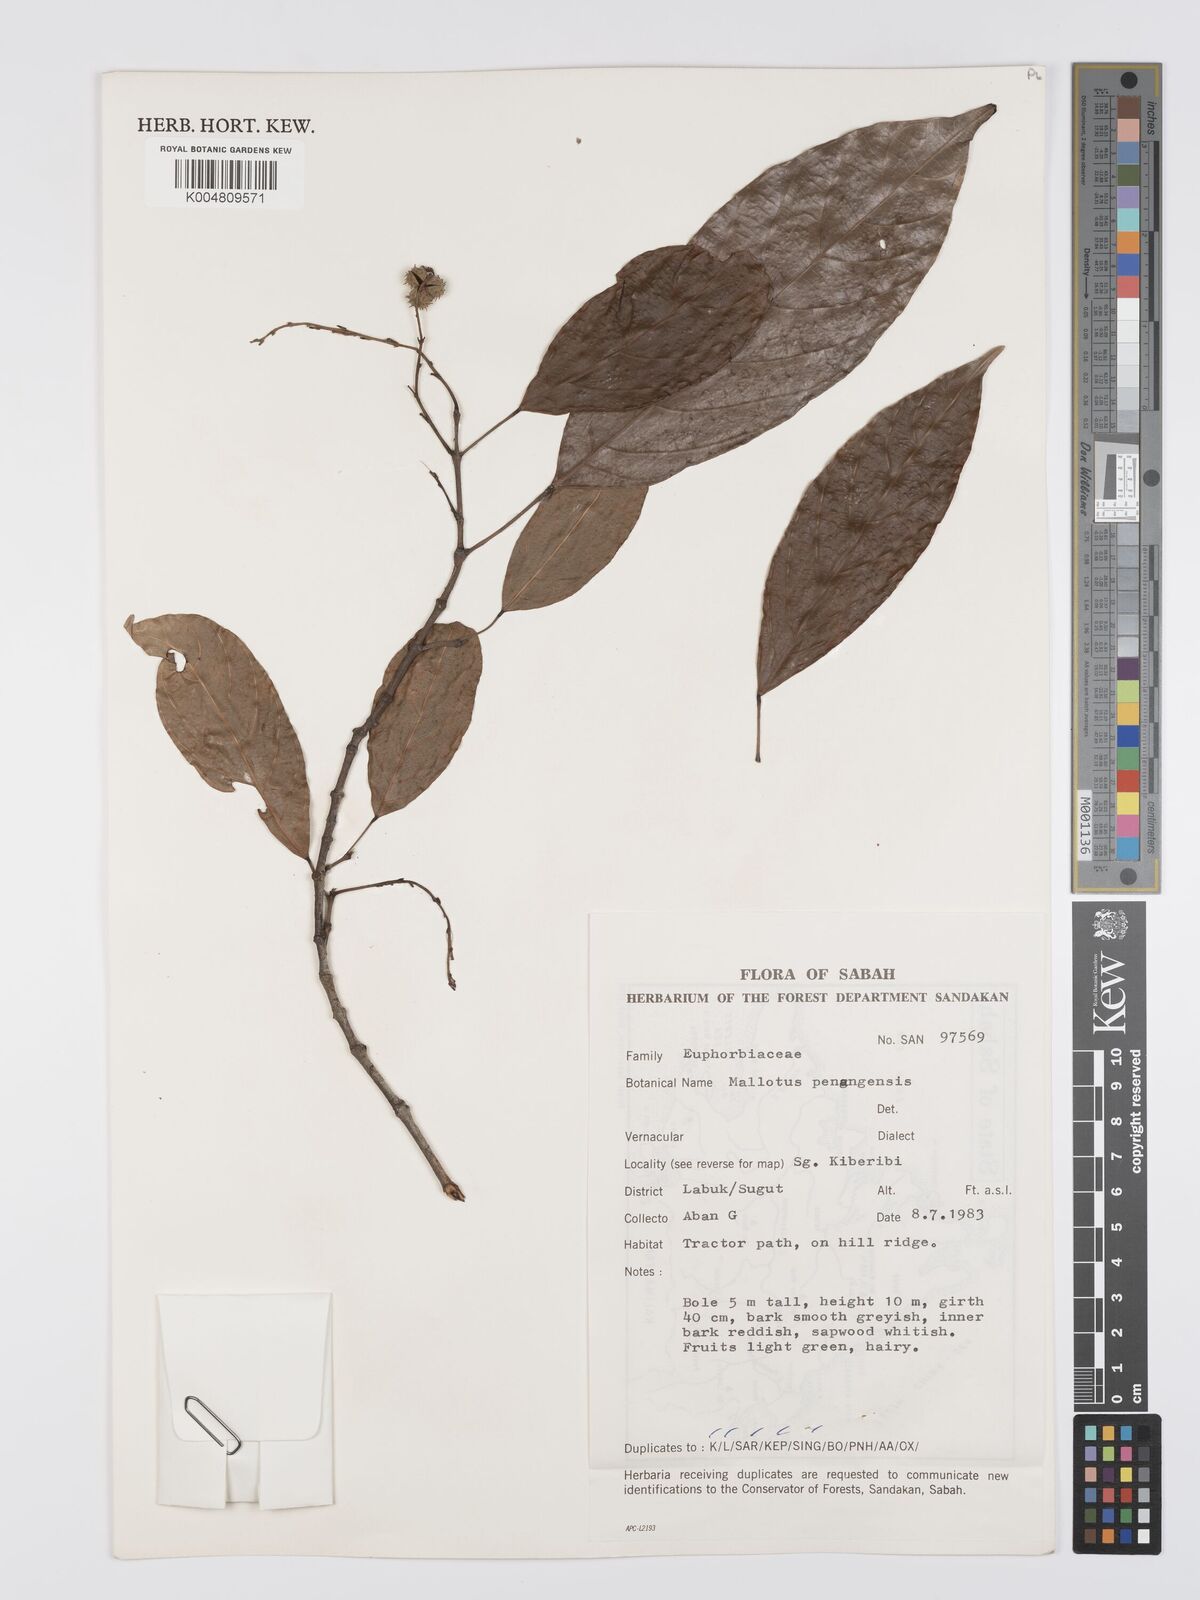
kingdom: Plantae
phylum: Tracheophyta
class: Magnoliopsida
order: Malpighiales
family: Euphorbiaceae
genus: Hancea
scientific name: Hancea penangensis
